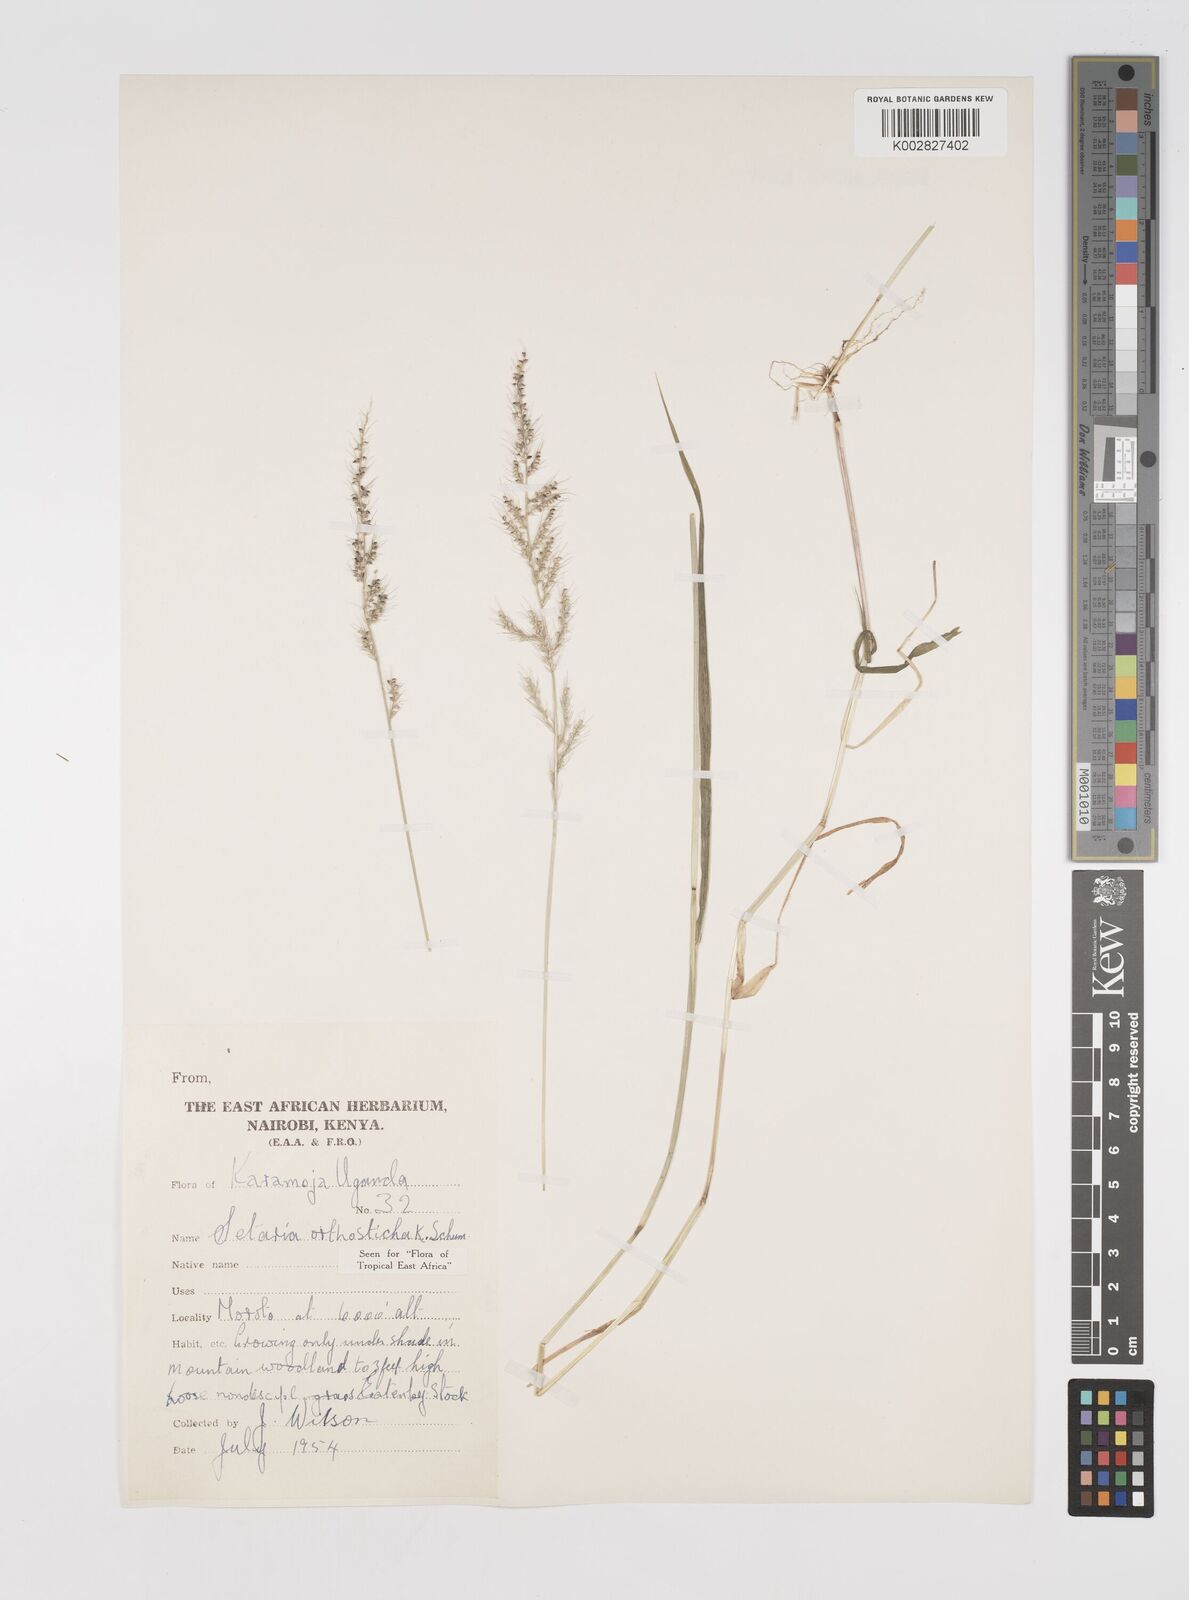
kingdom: Plantae
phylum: Tracheophyta
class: Liliopsida
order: Poales
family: Poaceae
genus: Setaria
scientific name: Setaria orthosticha
